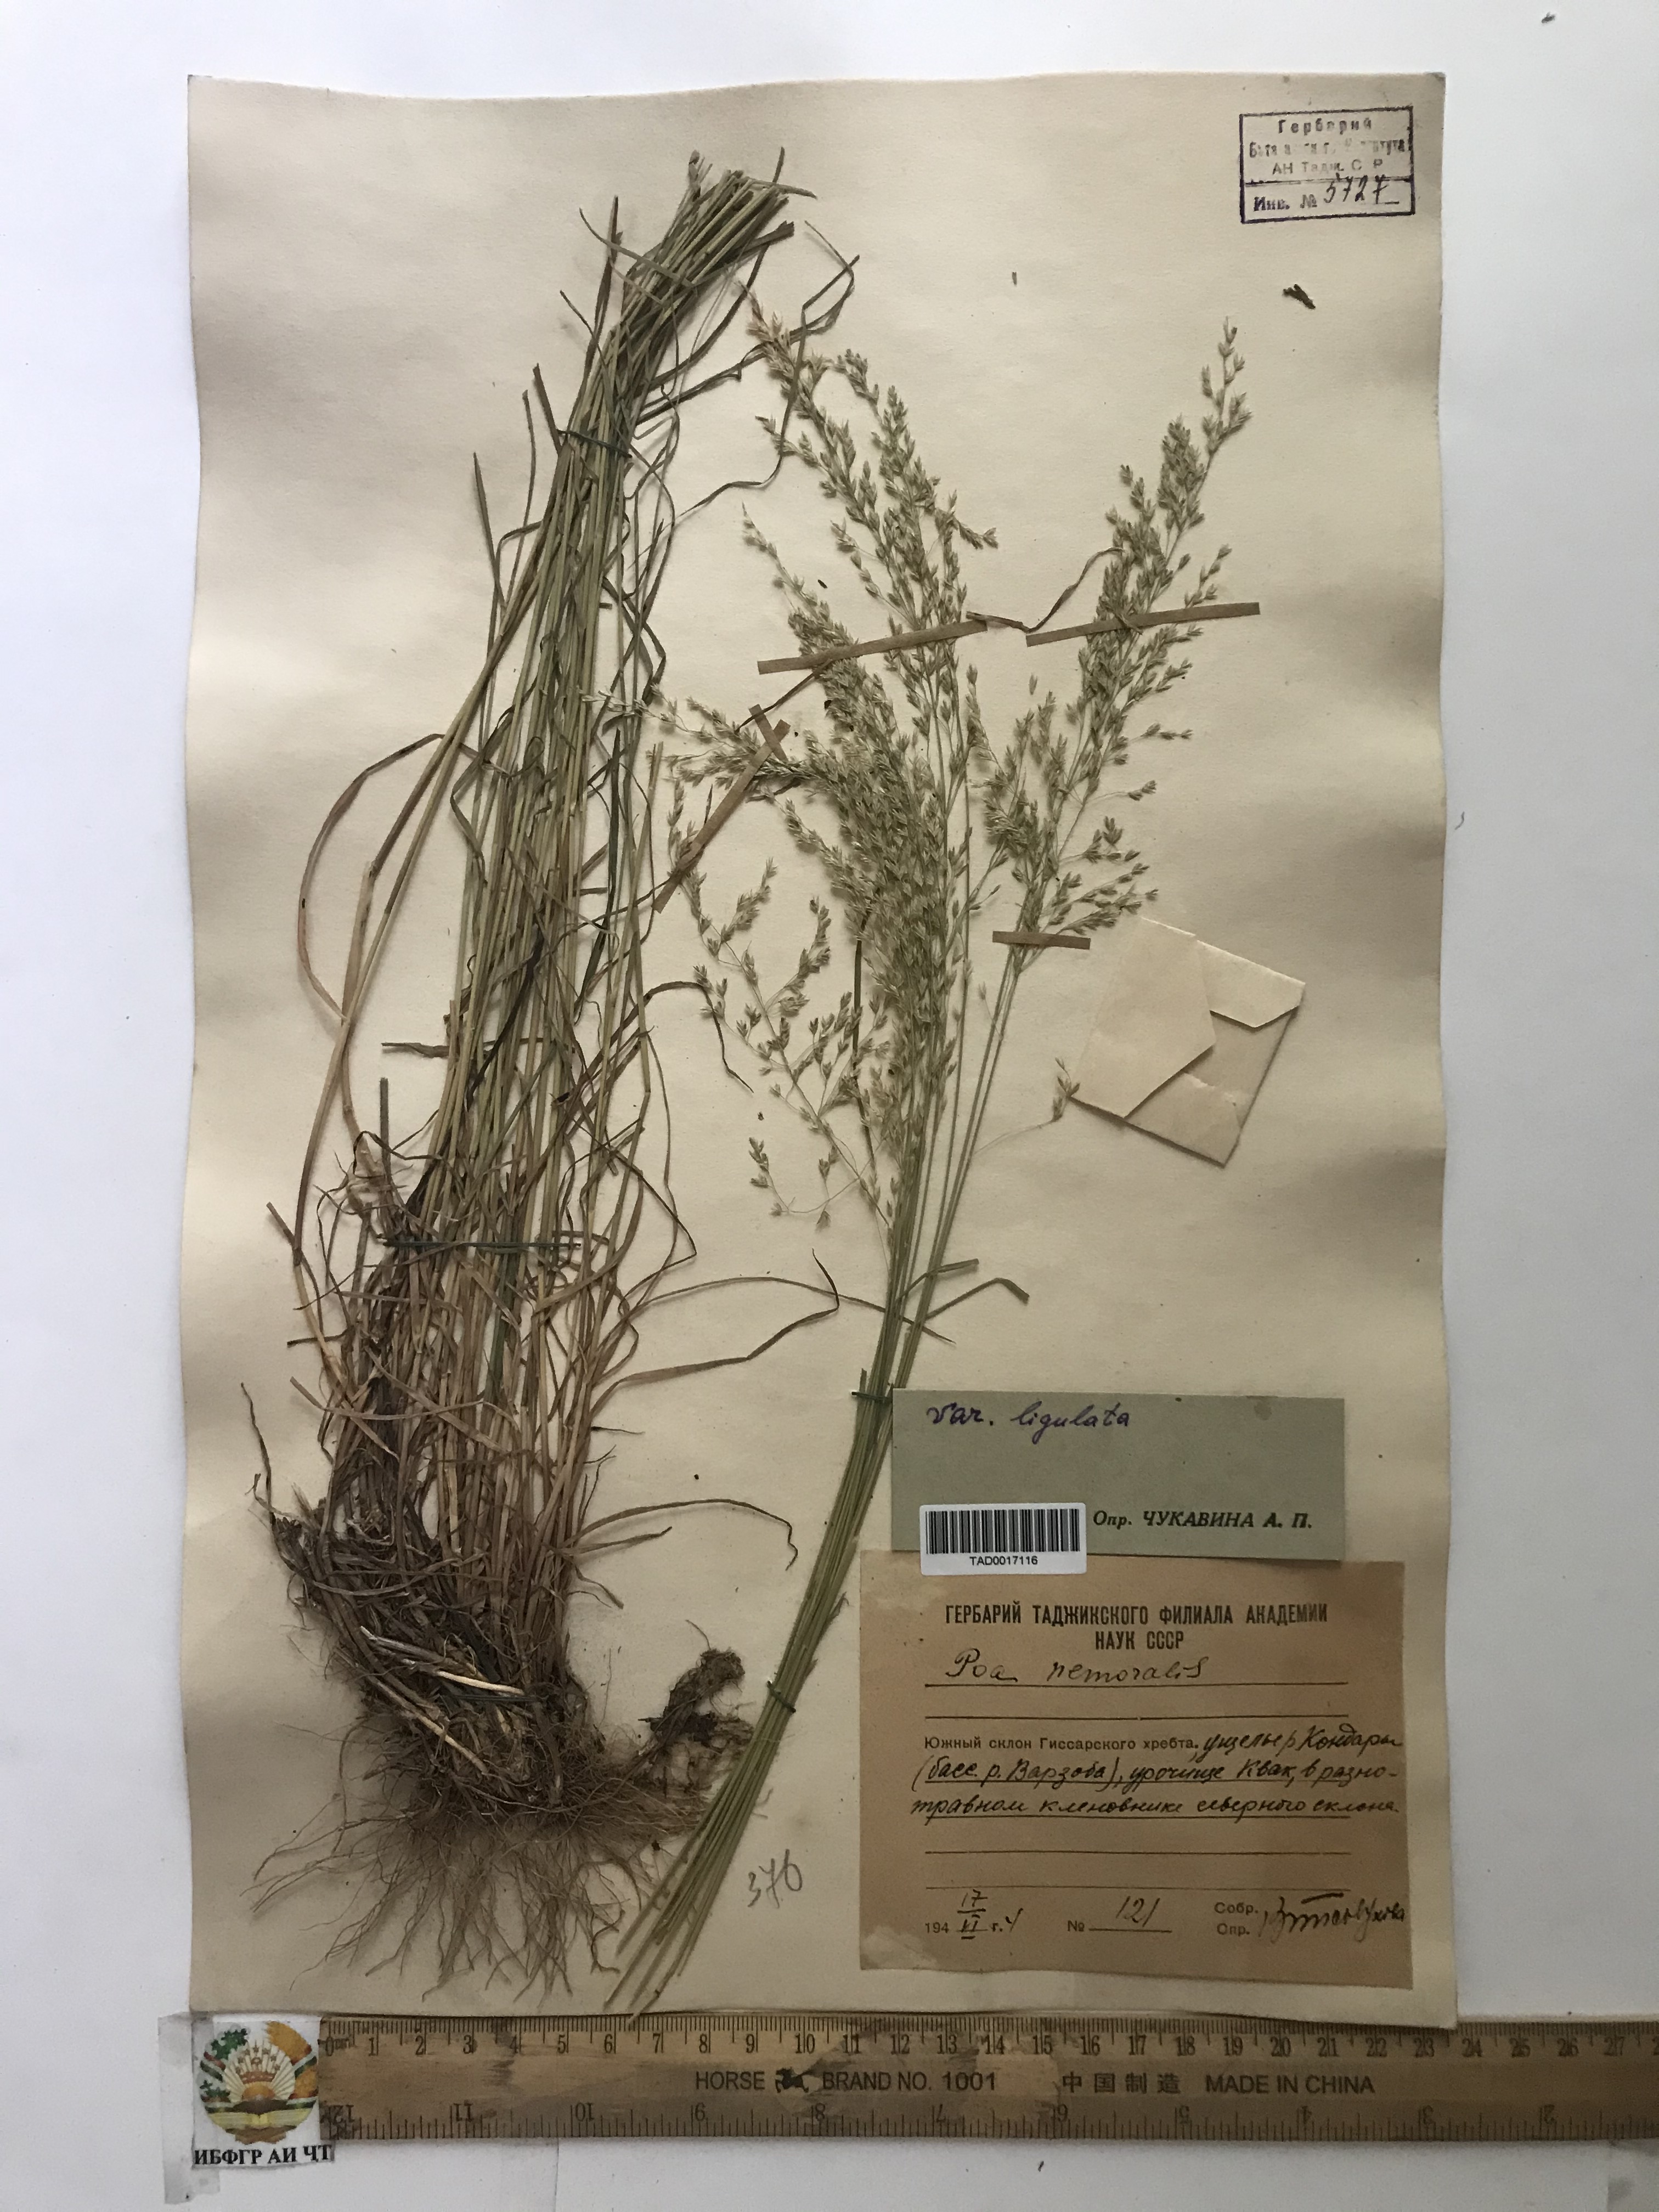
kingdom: Plantae
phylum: Tracheophyta
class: Liliopsida
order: Poales
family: Poaceae
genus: Poa
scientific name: Poa nemoralis
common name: Wood bluegrass
